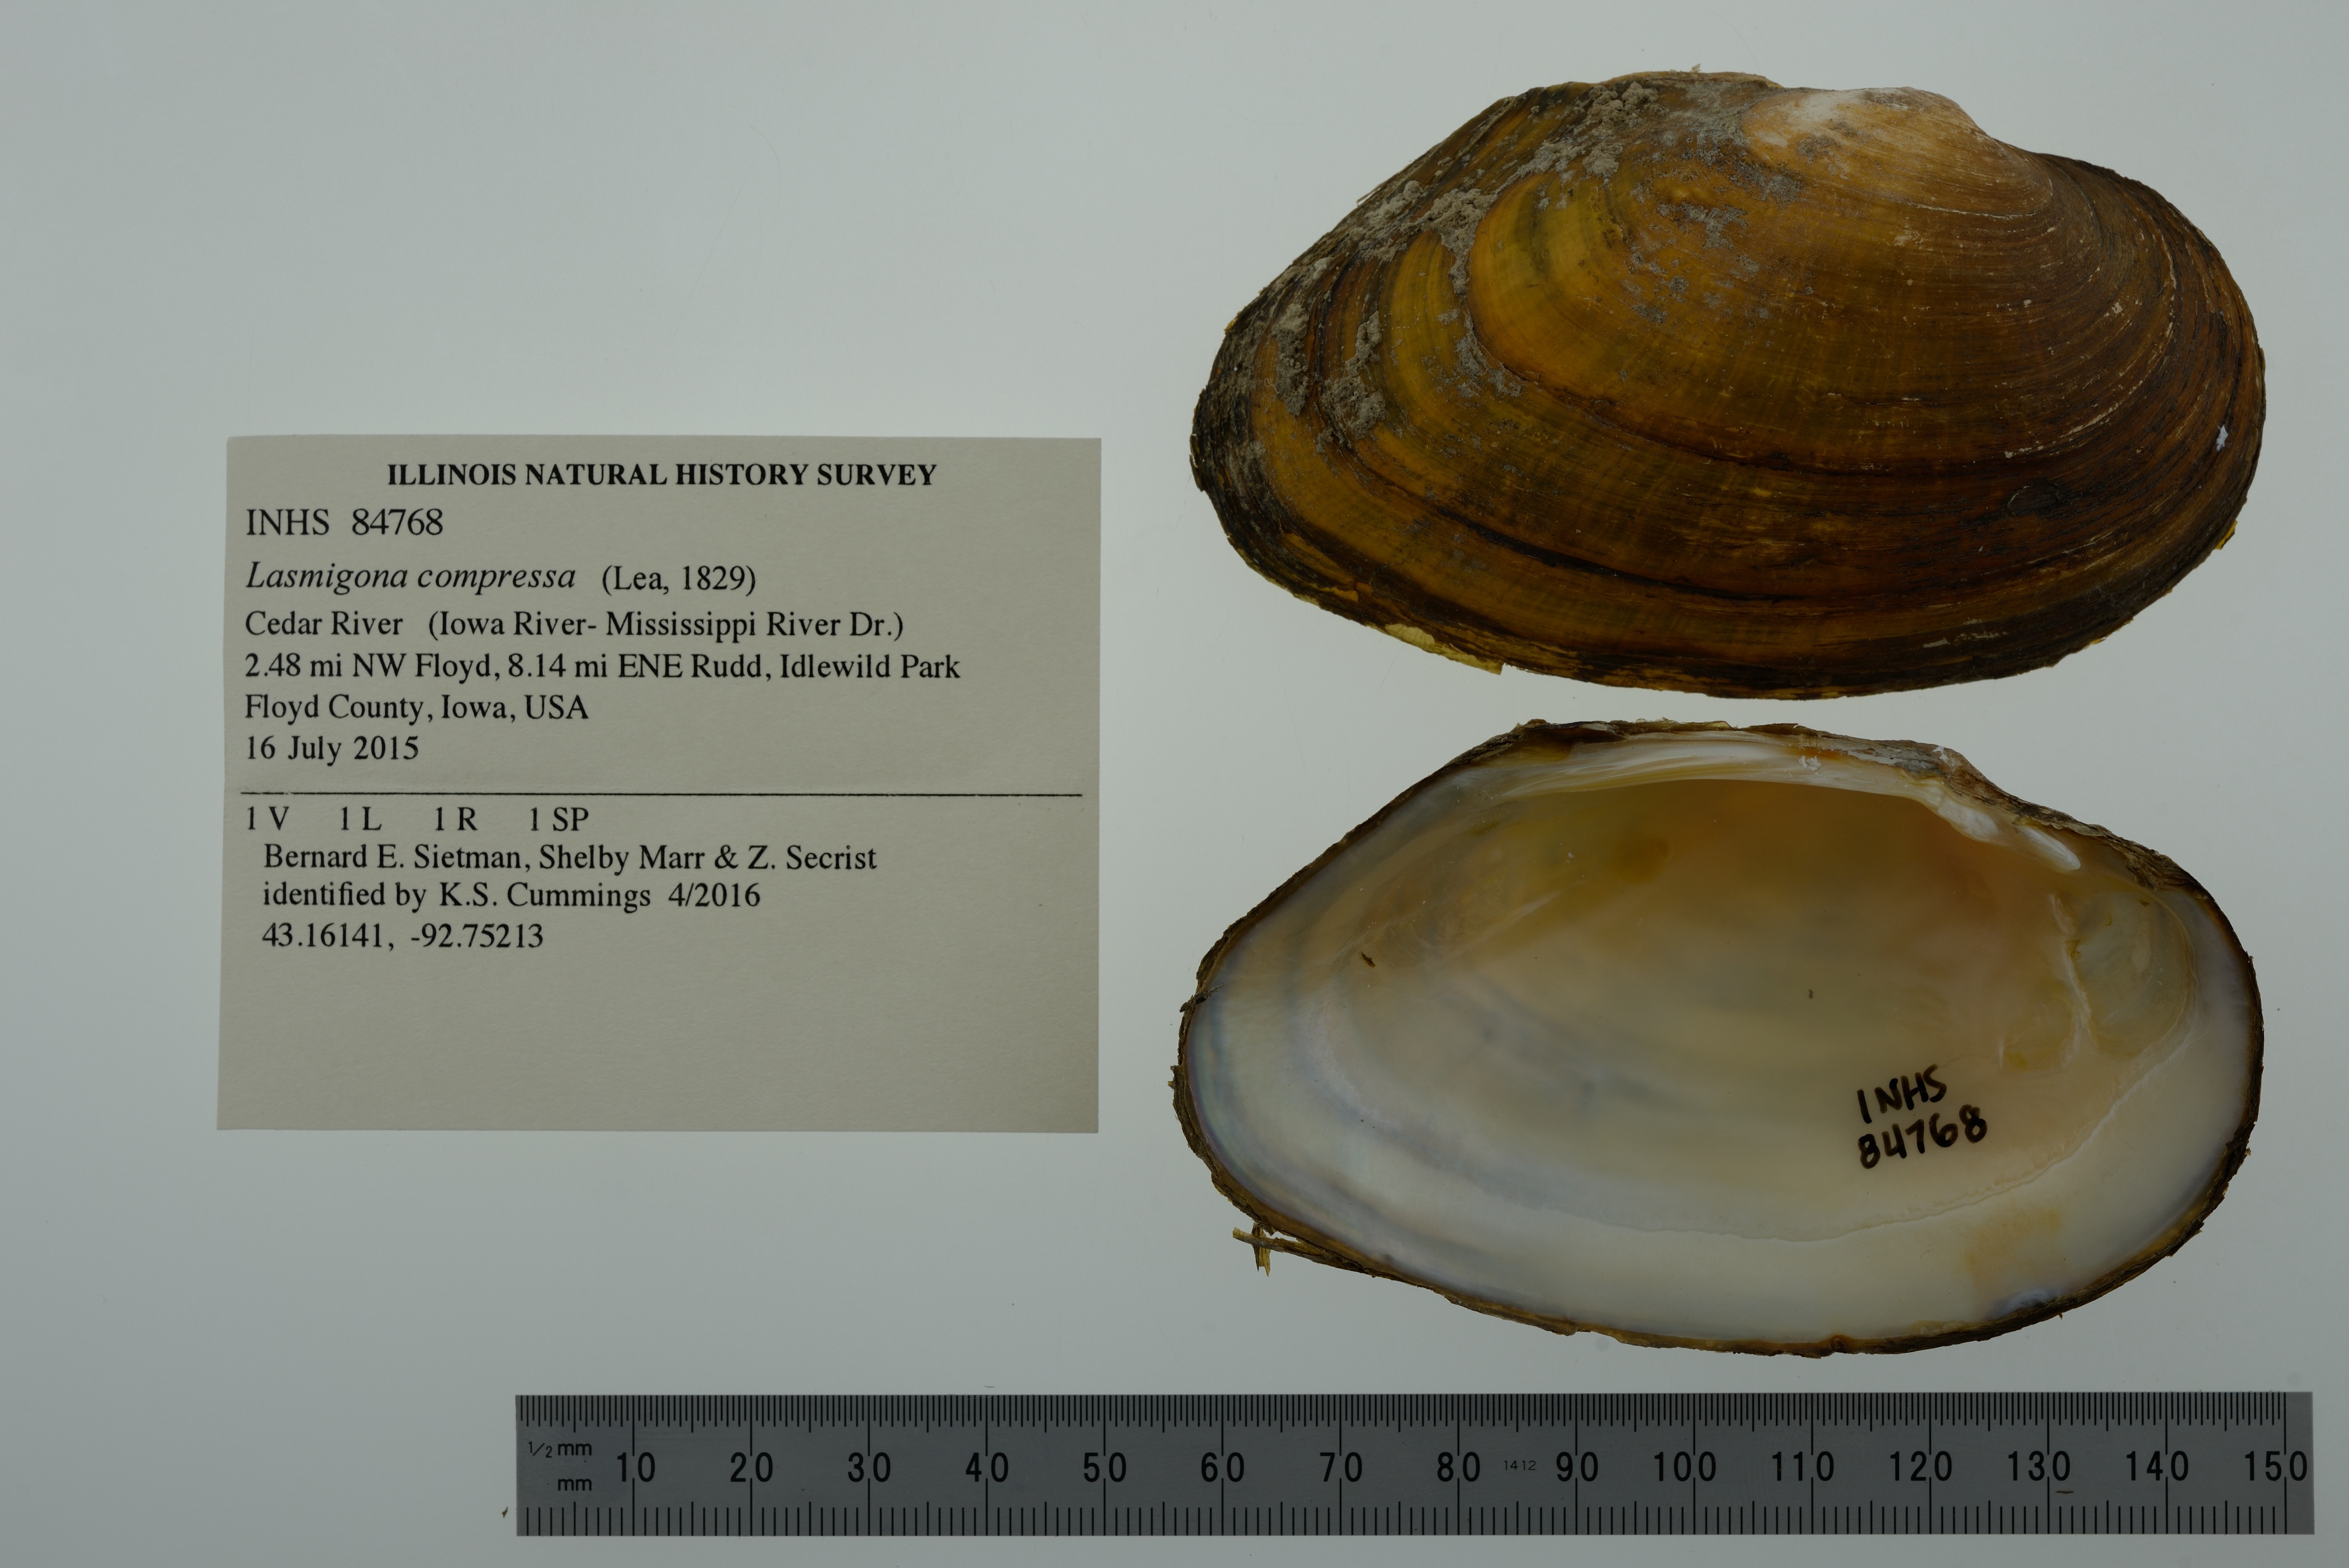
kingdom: Animalia
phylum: Mollusca
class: Bivalvia
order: Unionida
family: Unionidae
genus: Lasmigona
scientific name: Lasmigona compressa
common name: Creek heelsplitter
